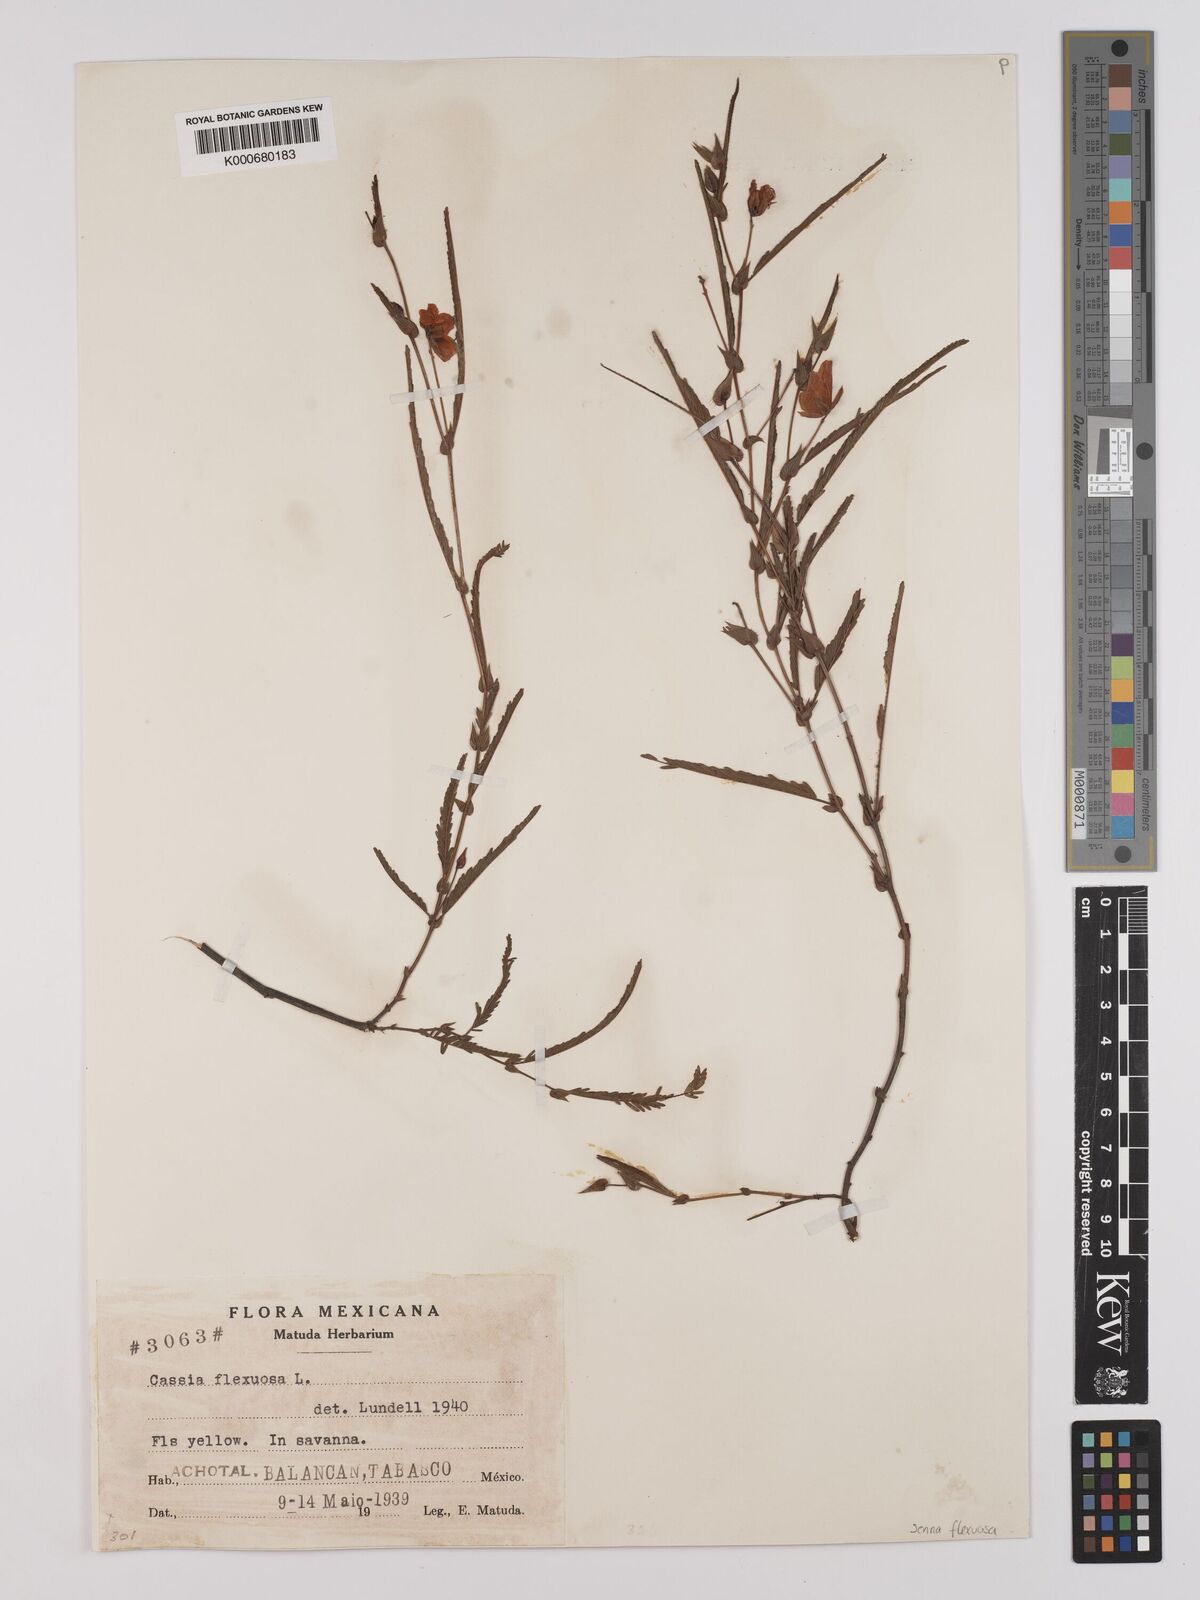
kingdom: Plantae
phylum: Tracheophyta
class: Magnoliopsida
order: Fabales
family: Fabaceae
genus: Chamaecrista
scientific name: Chamaecrista flexuosa
